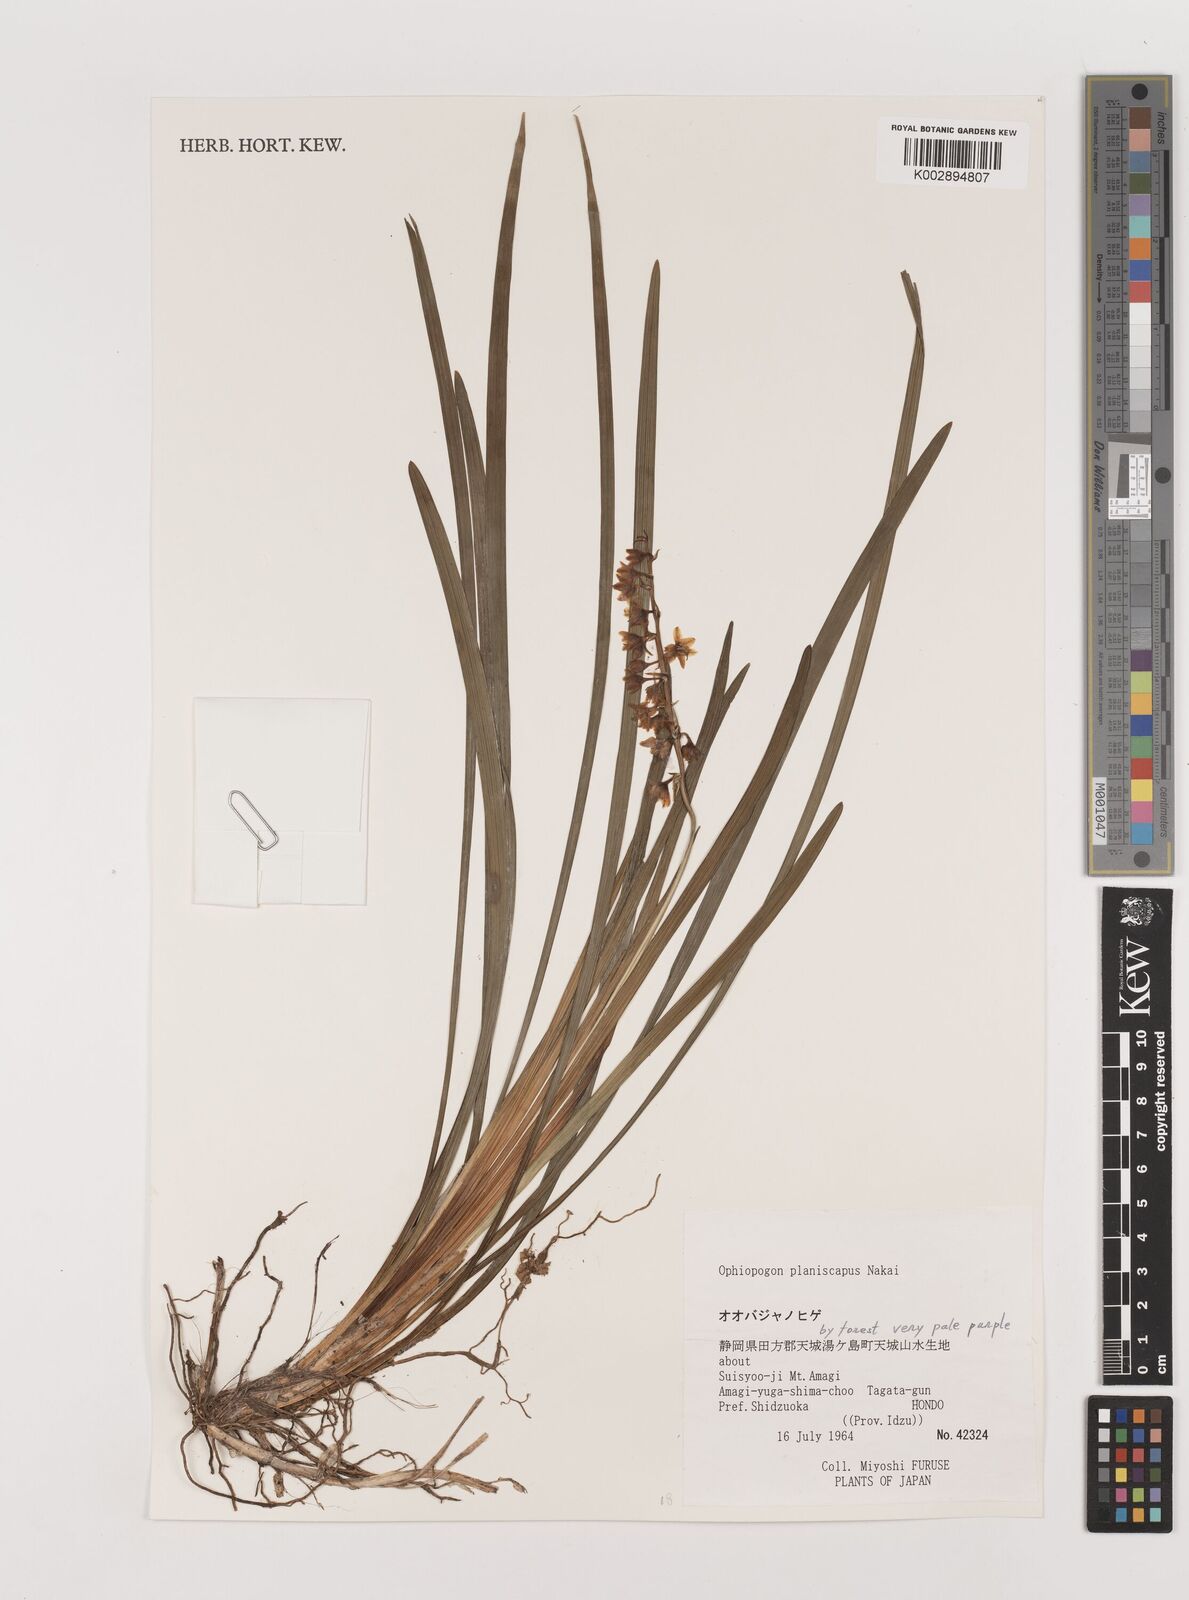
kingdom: Plantae
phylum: Tracheophyta
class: Liliopsida
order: Asparagales
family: Asparagaceae
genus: Ophiopogon
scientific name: Ophiopogon planiscapus
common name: Black mondo
